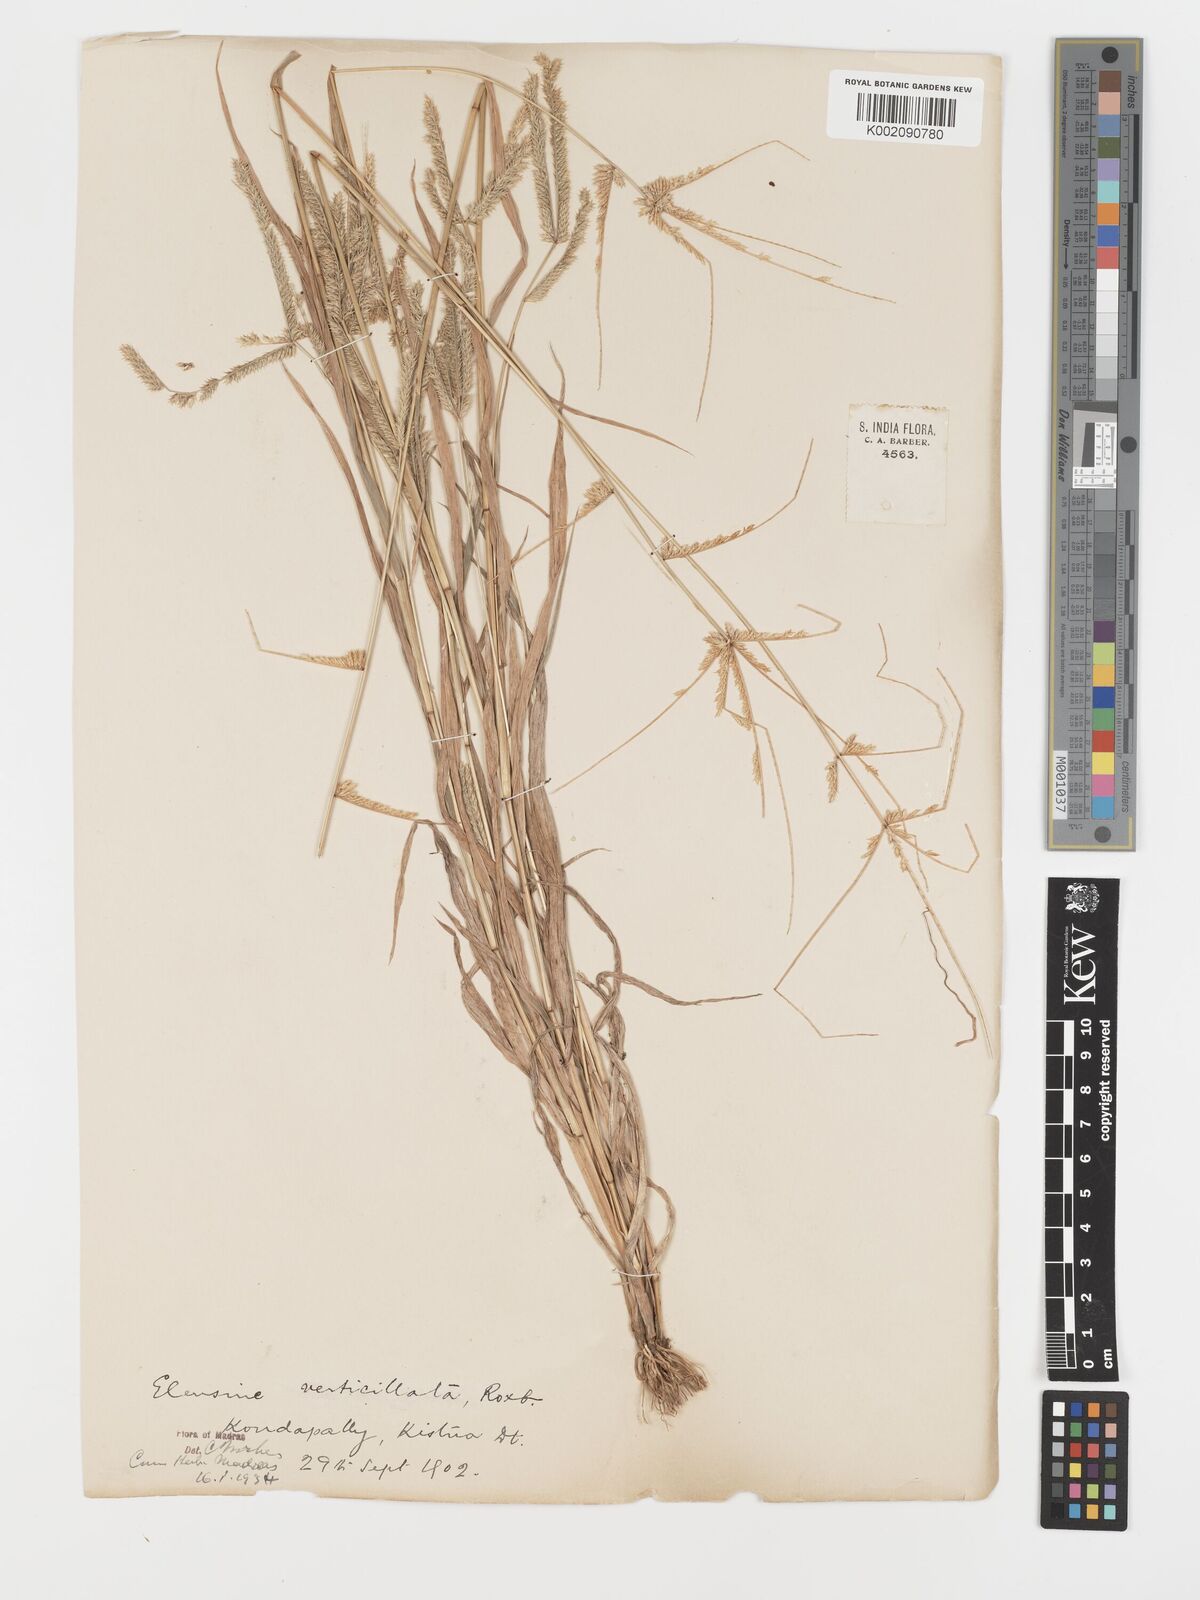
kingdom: Plantae
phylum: Tracheophyta
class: Liliopsida
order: Poales
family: Poaceae
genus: Acrachne
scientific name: Acrachne racemosa
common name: Goosegrass
